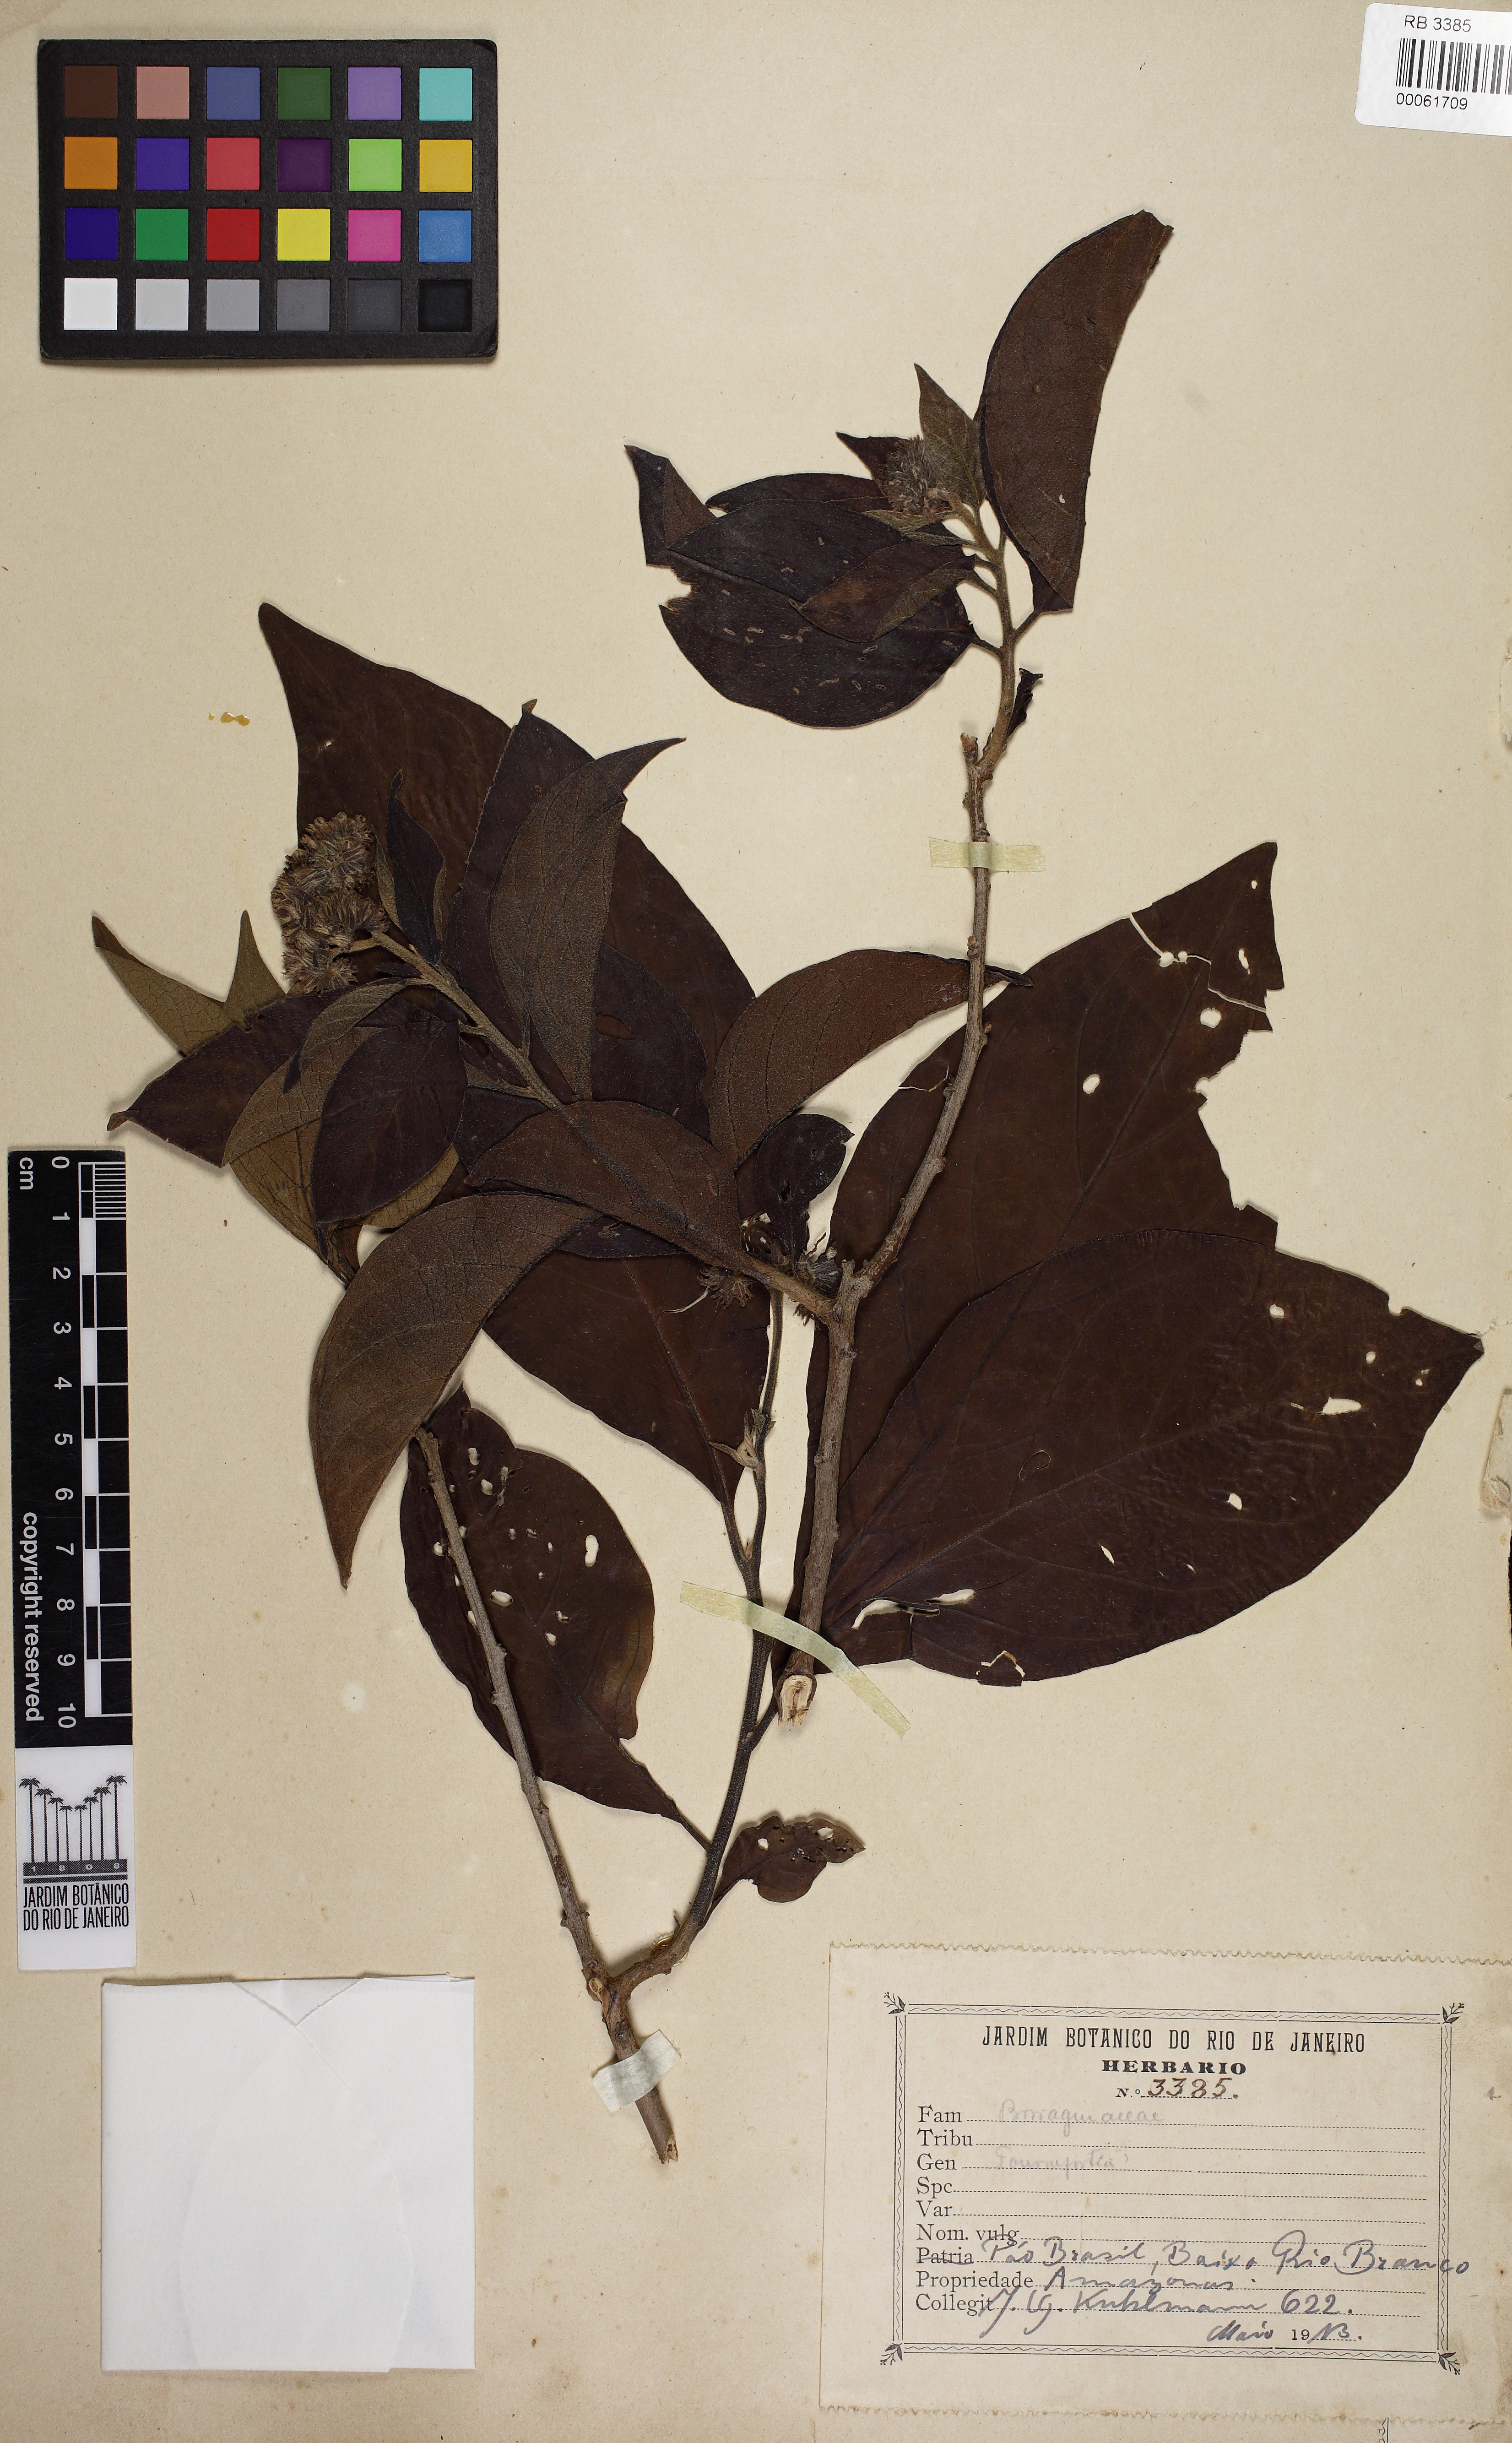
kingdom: Plantae
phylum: Tracheophyta
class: Magnoliopsida
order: Boraginales
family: Heliotropiaceae
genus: Tournefortia
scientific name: Tournefortia
